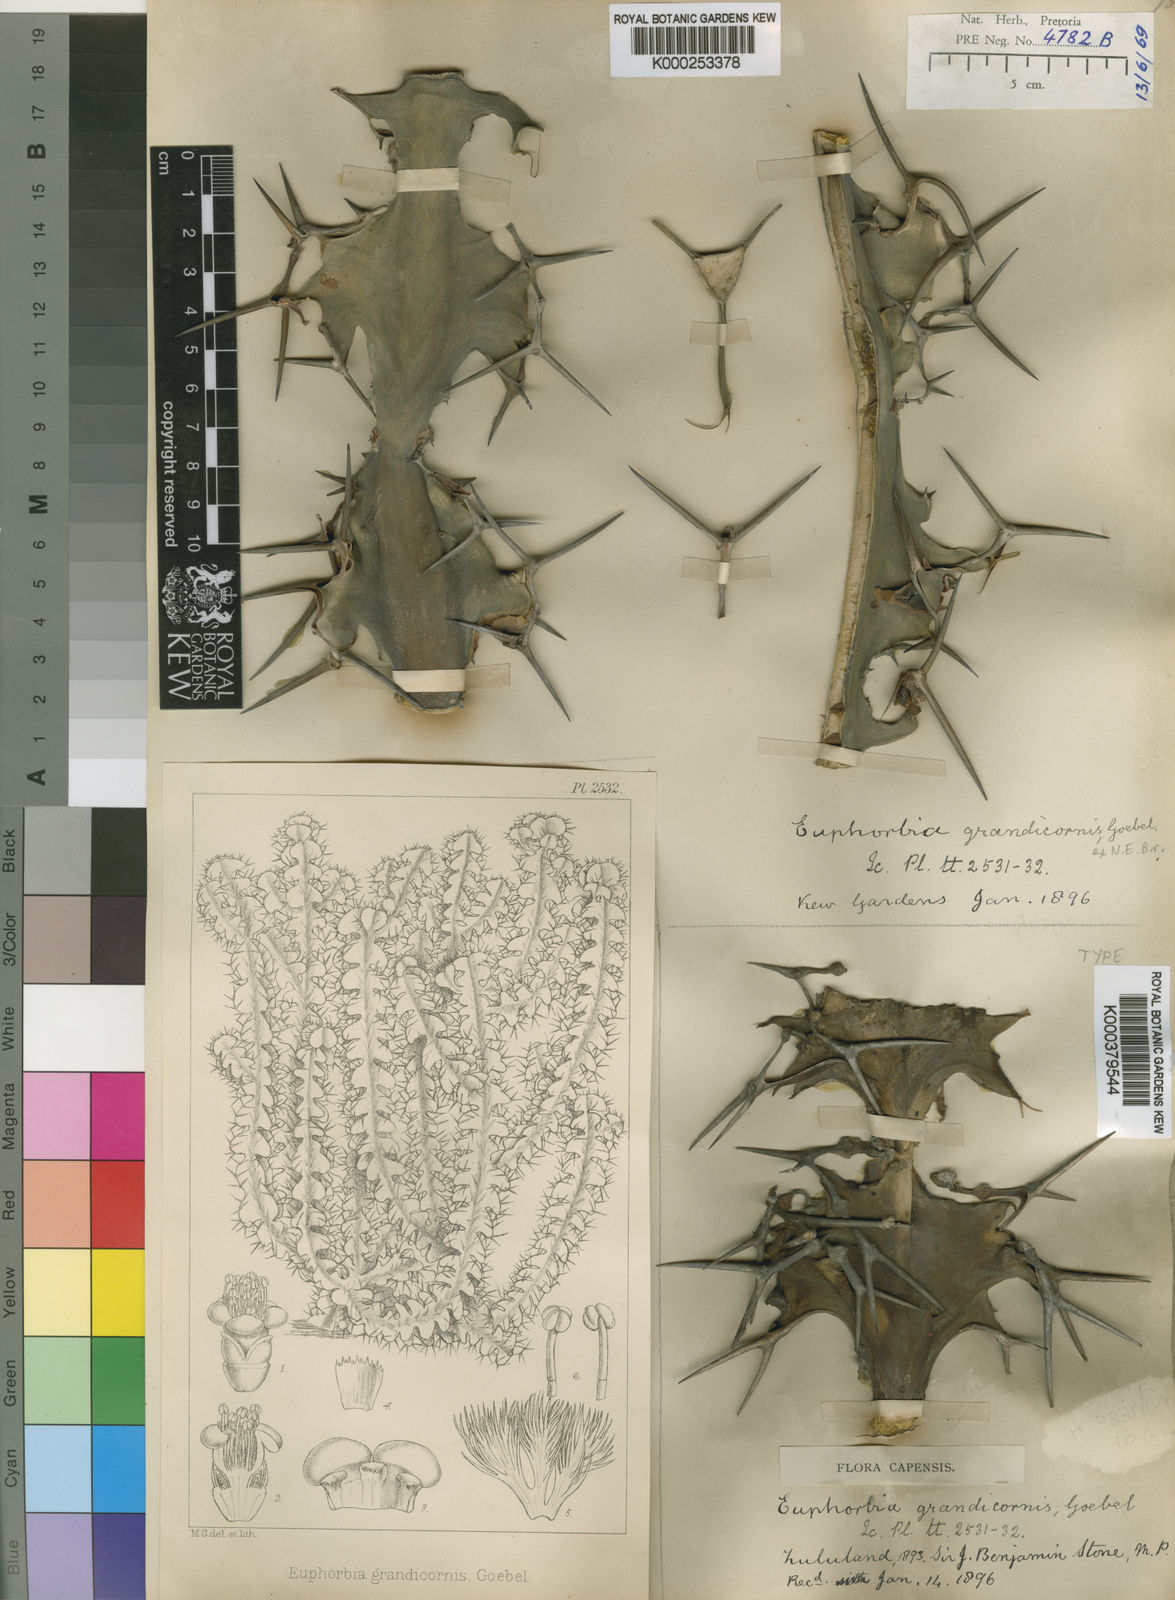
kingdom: Plantae
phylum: Tracheophyta
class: Magnoliopsida
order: Malpighiales
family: Euphorbiaceae
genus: Euphorbia
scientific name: Euphorbia
